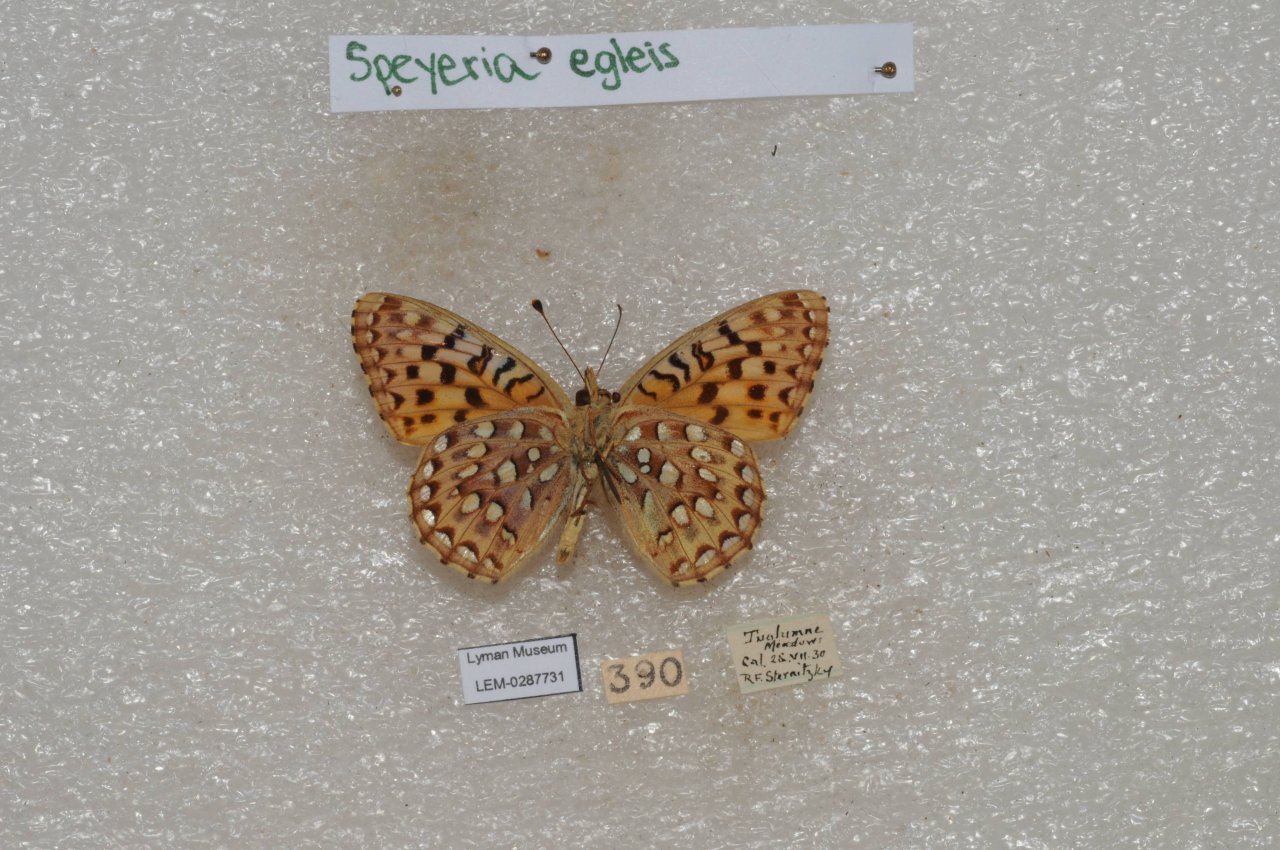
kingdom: Animalia
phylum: Arthropoda
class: Insecta
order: Lepidoptera
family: Nymphalidae
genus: Speyeria
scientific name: Speyeria egleis
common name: Great Basin Fritillary
